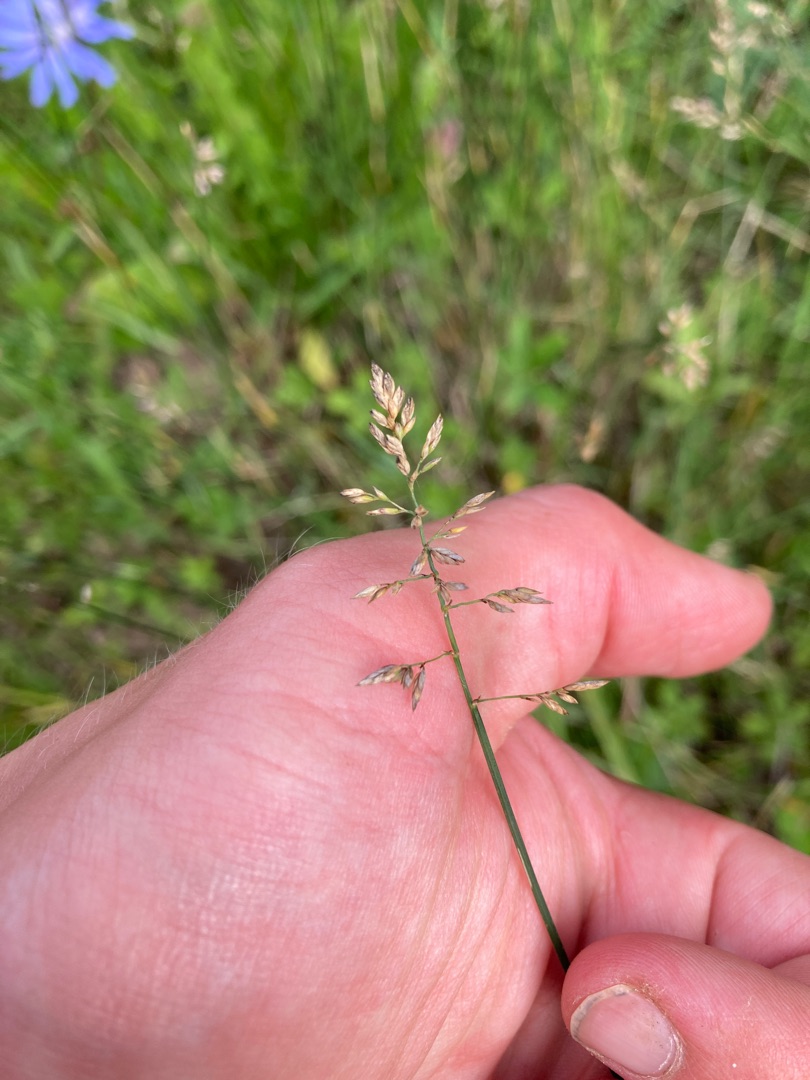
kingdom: Plantae
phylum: Tracheophyta
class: Liliopsida
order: Poales
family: Poaceae
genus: Poa
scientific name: Poa compressa
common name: Fladstrået rapgræs
